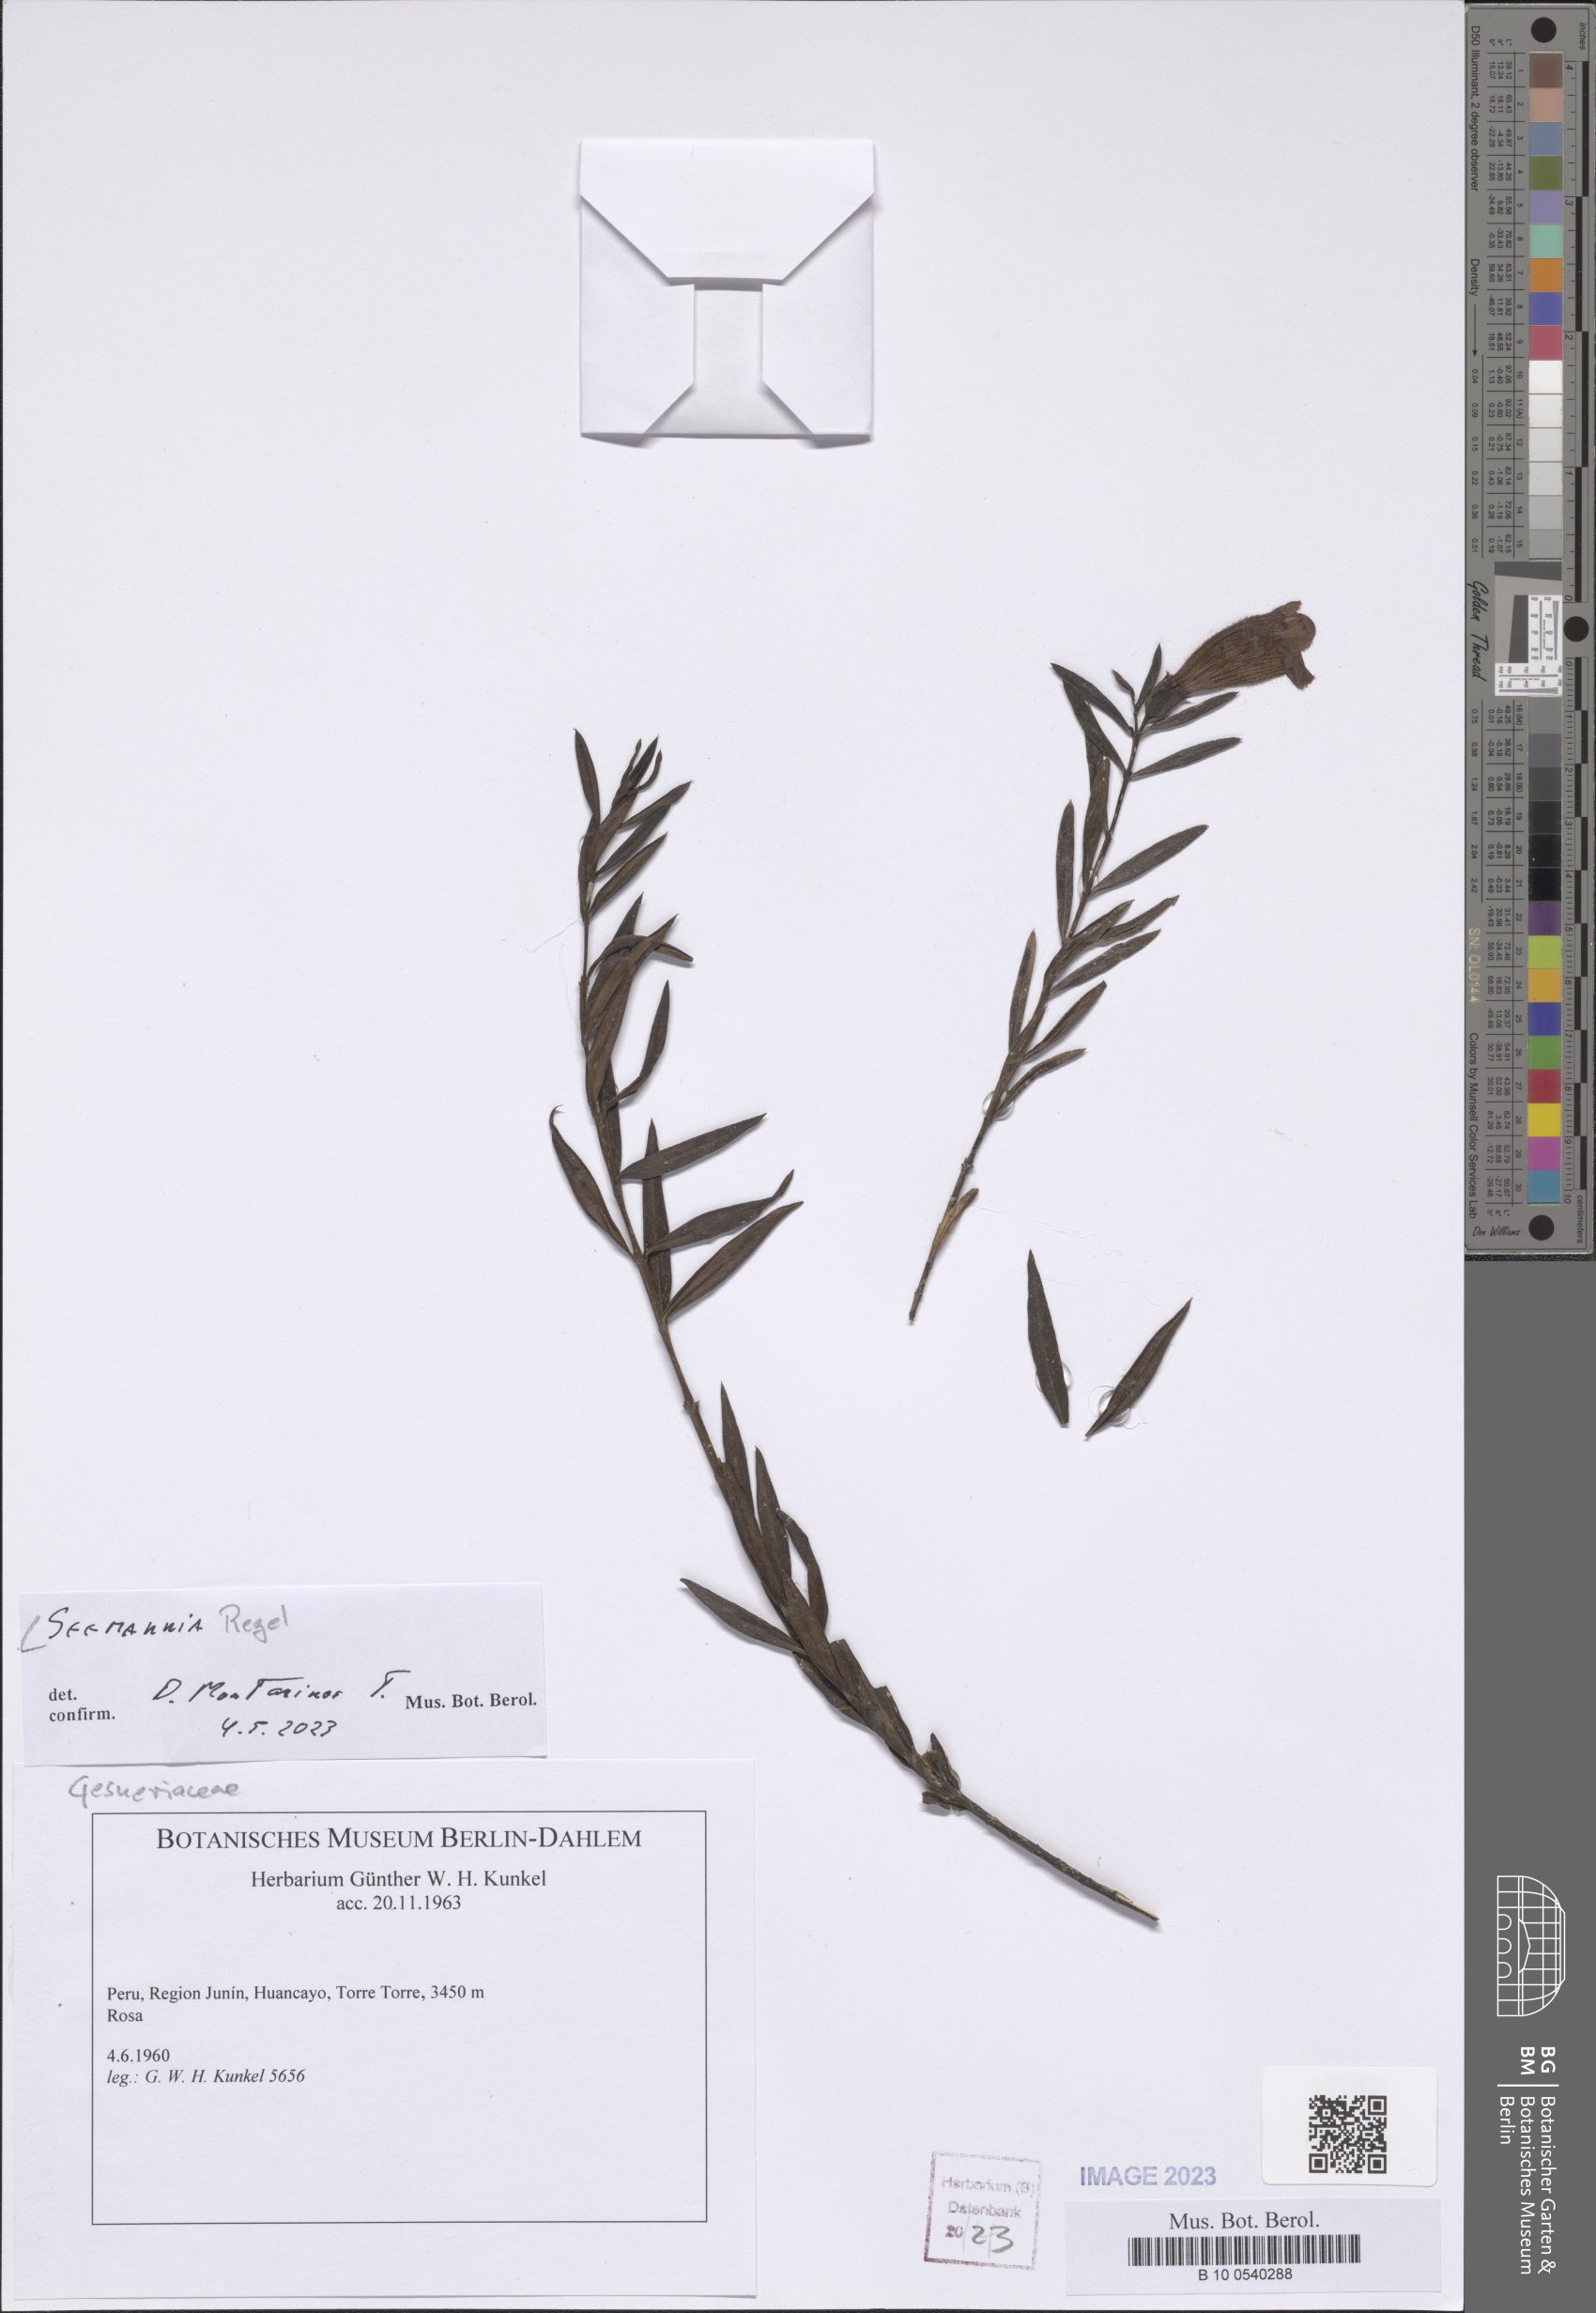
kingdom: Plantae
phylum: Tracheophyta
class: Magnoliopsida
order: Lamiales
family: Gesneriaceae
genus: Seemannia
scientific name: Seemannia
